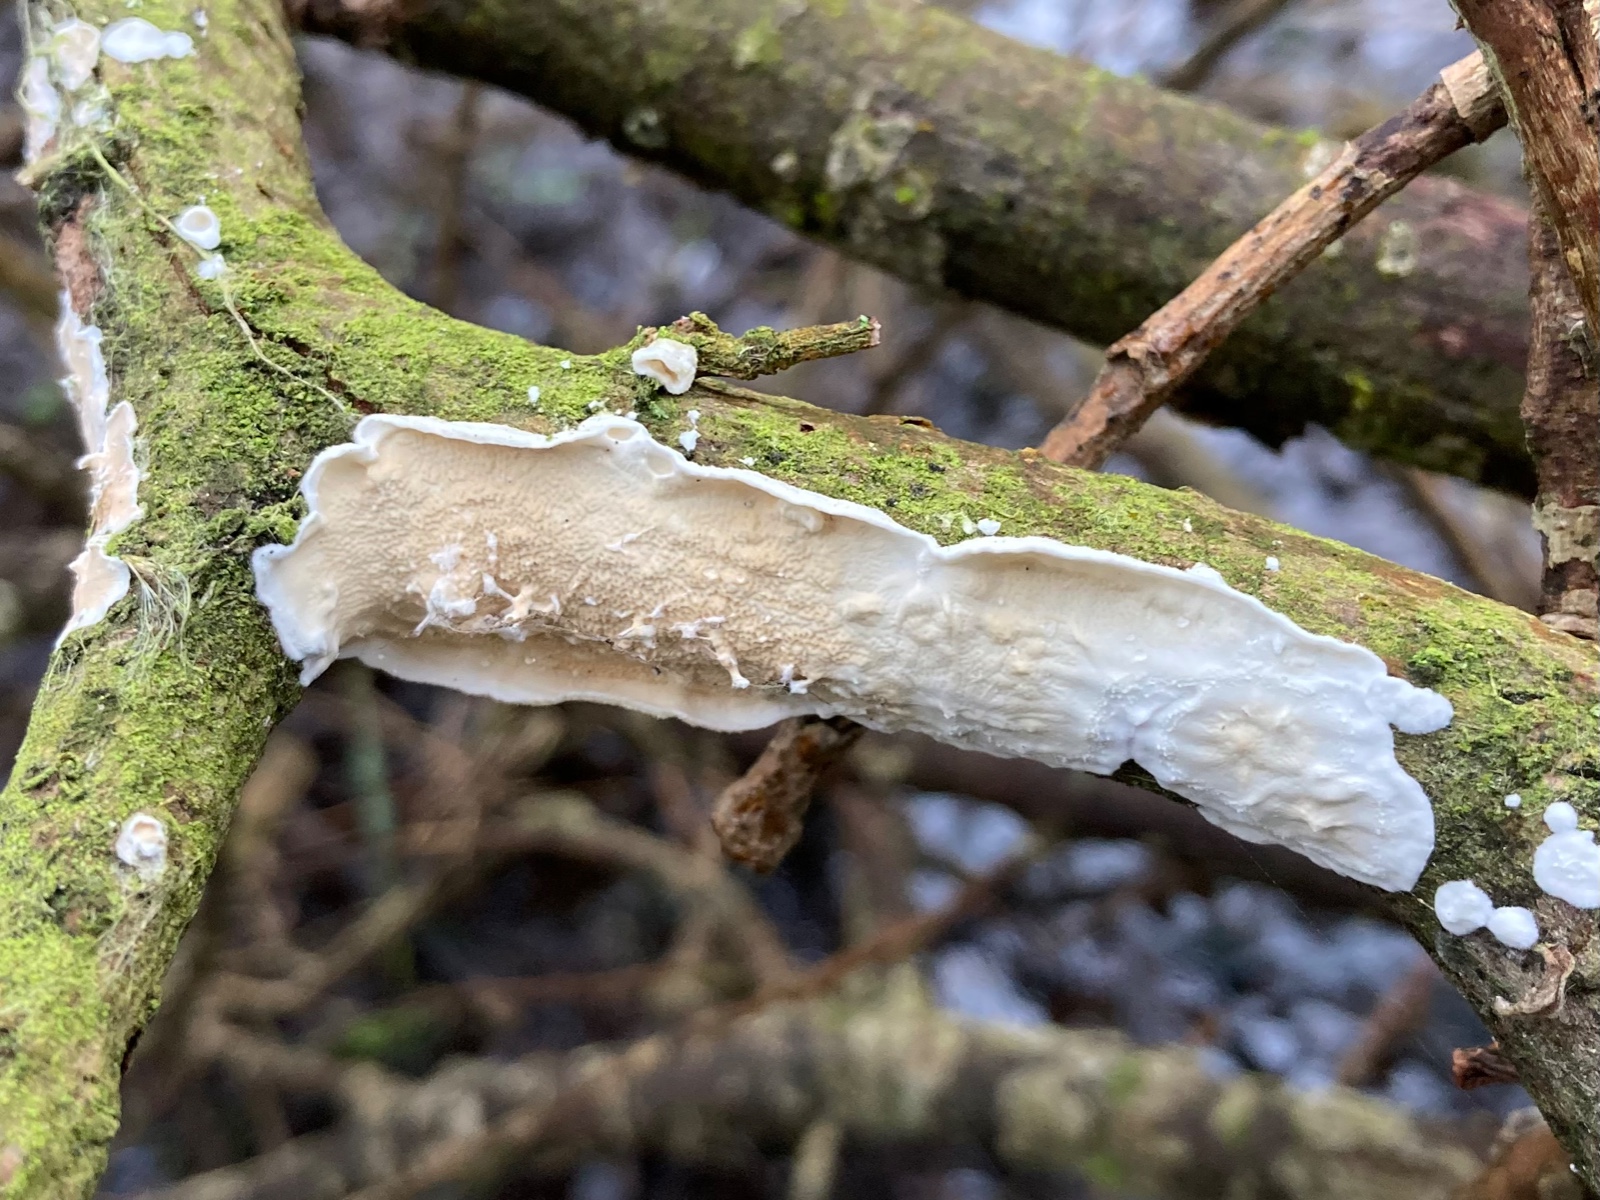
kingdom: Fungi
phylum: Basidiomycota
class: Agaricomycetes
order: Polyporales
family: Irpicaceae
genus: Byssomerulius
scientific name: Byssomerulius corium
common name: læder-åresvamp
